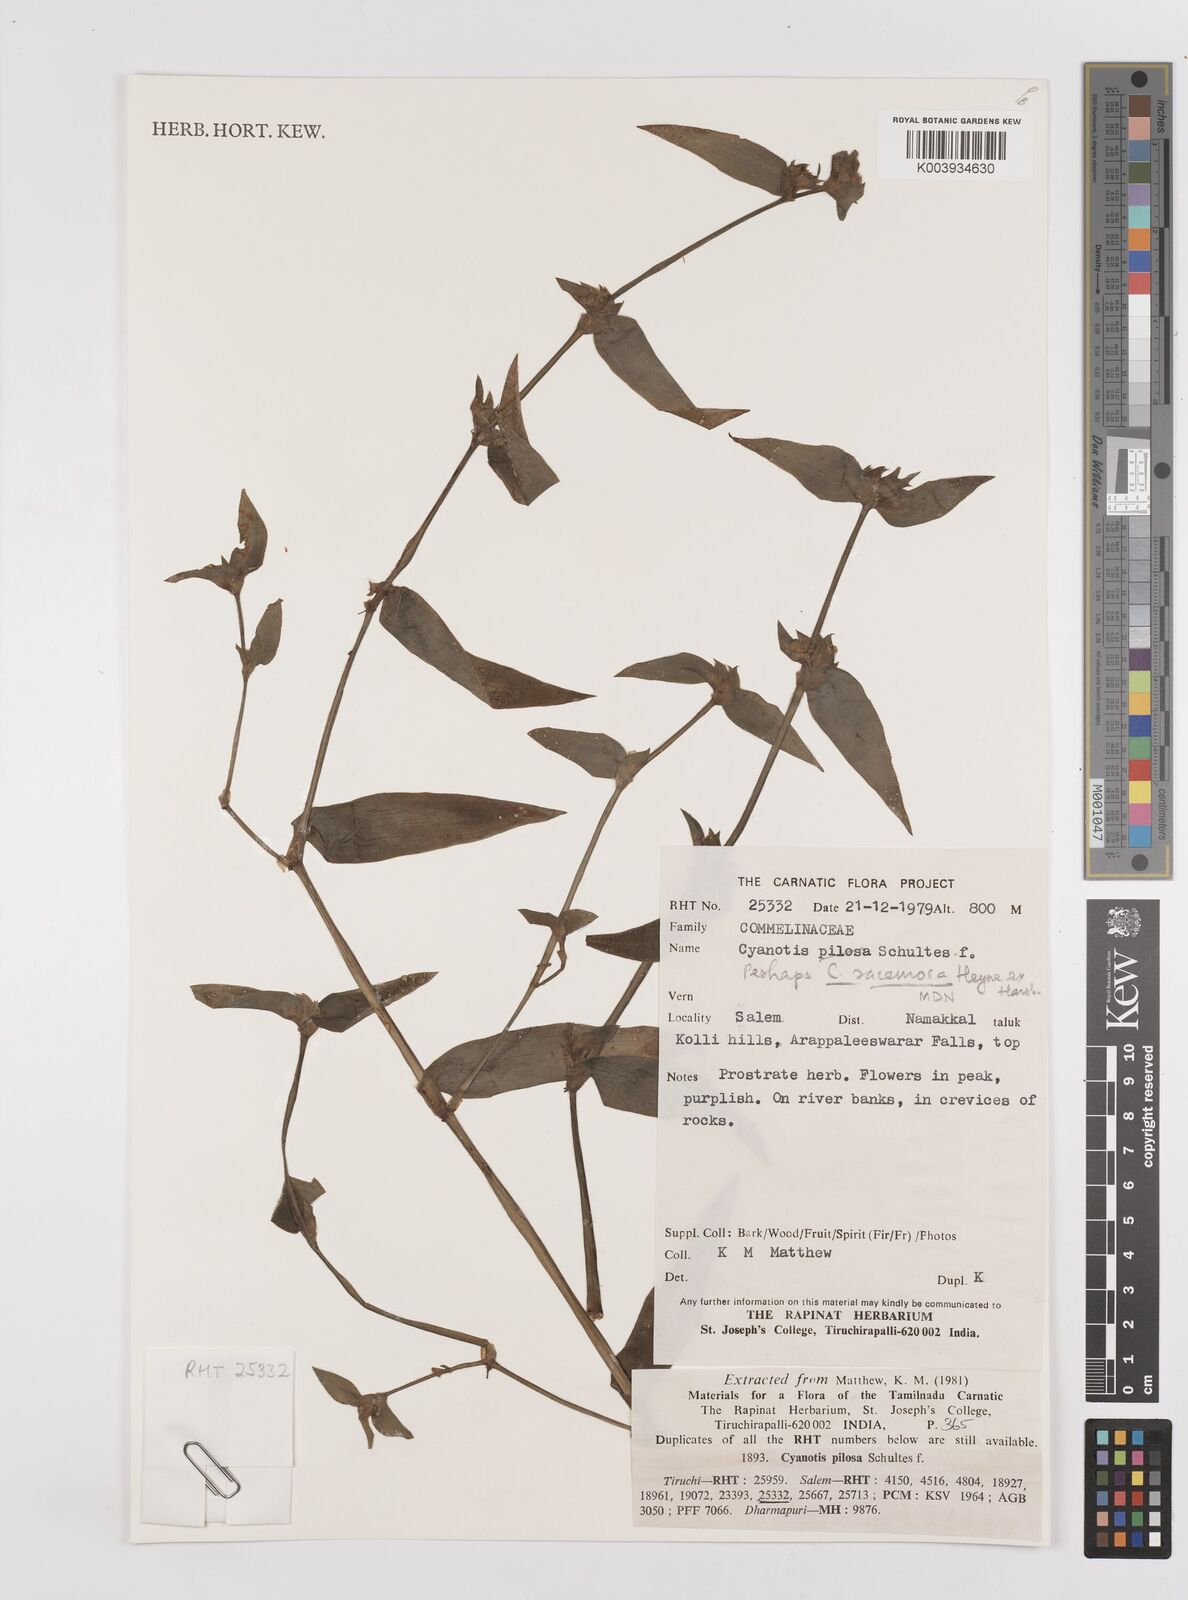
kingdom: Plantae
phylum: Tracheophyta
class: Liliopsida
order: Commelinales
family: Commelinaceae
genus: Cyanotis
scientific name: Cyanotis pilosa
